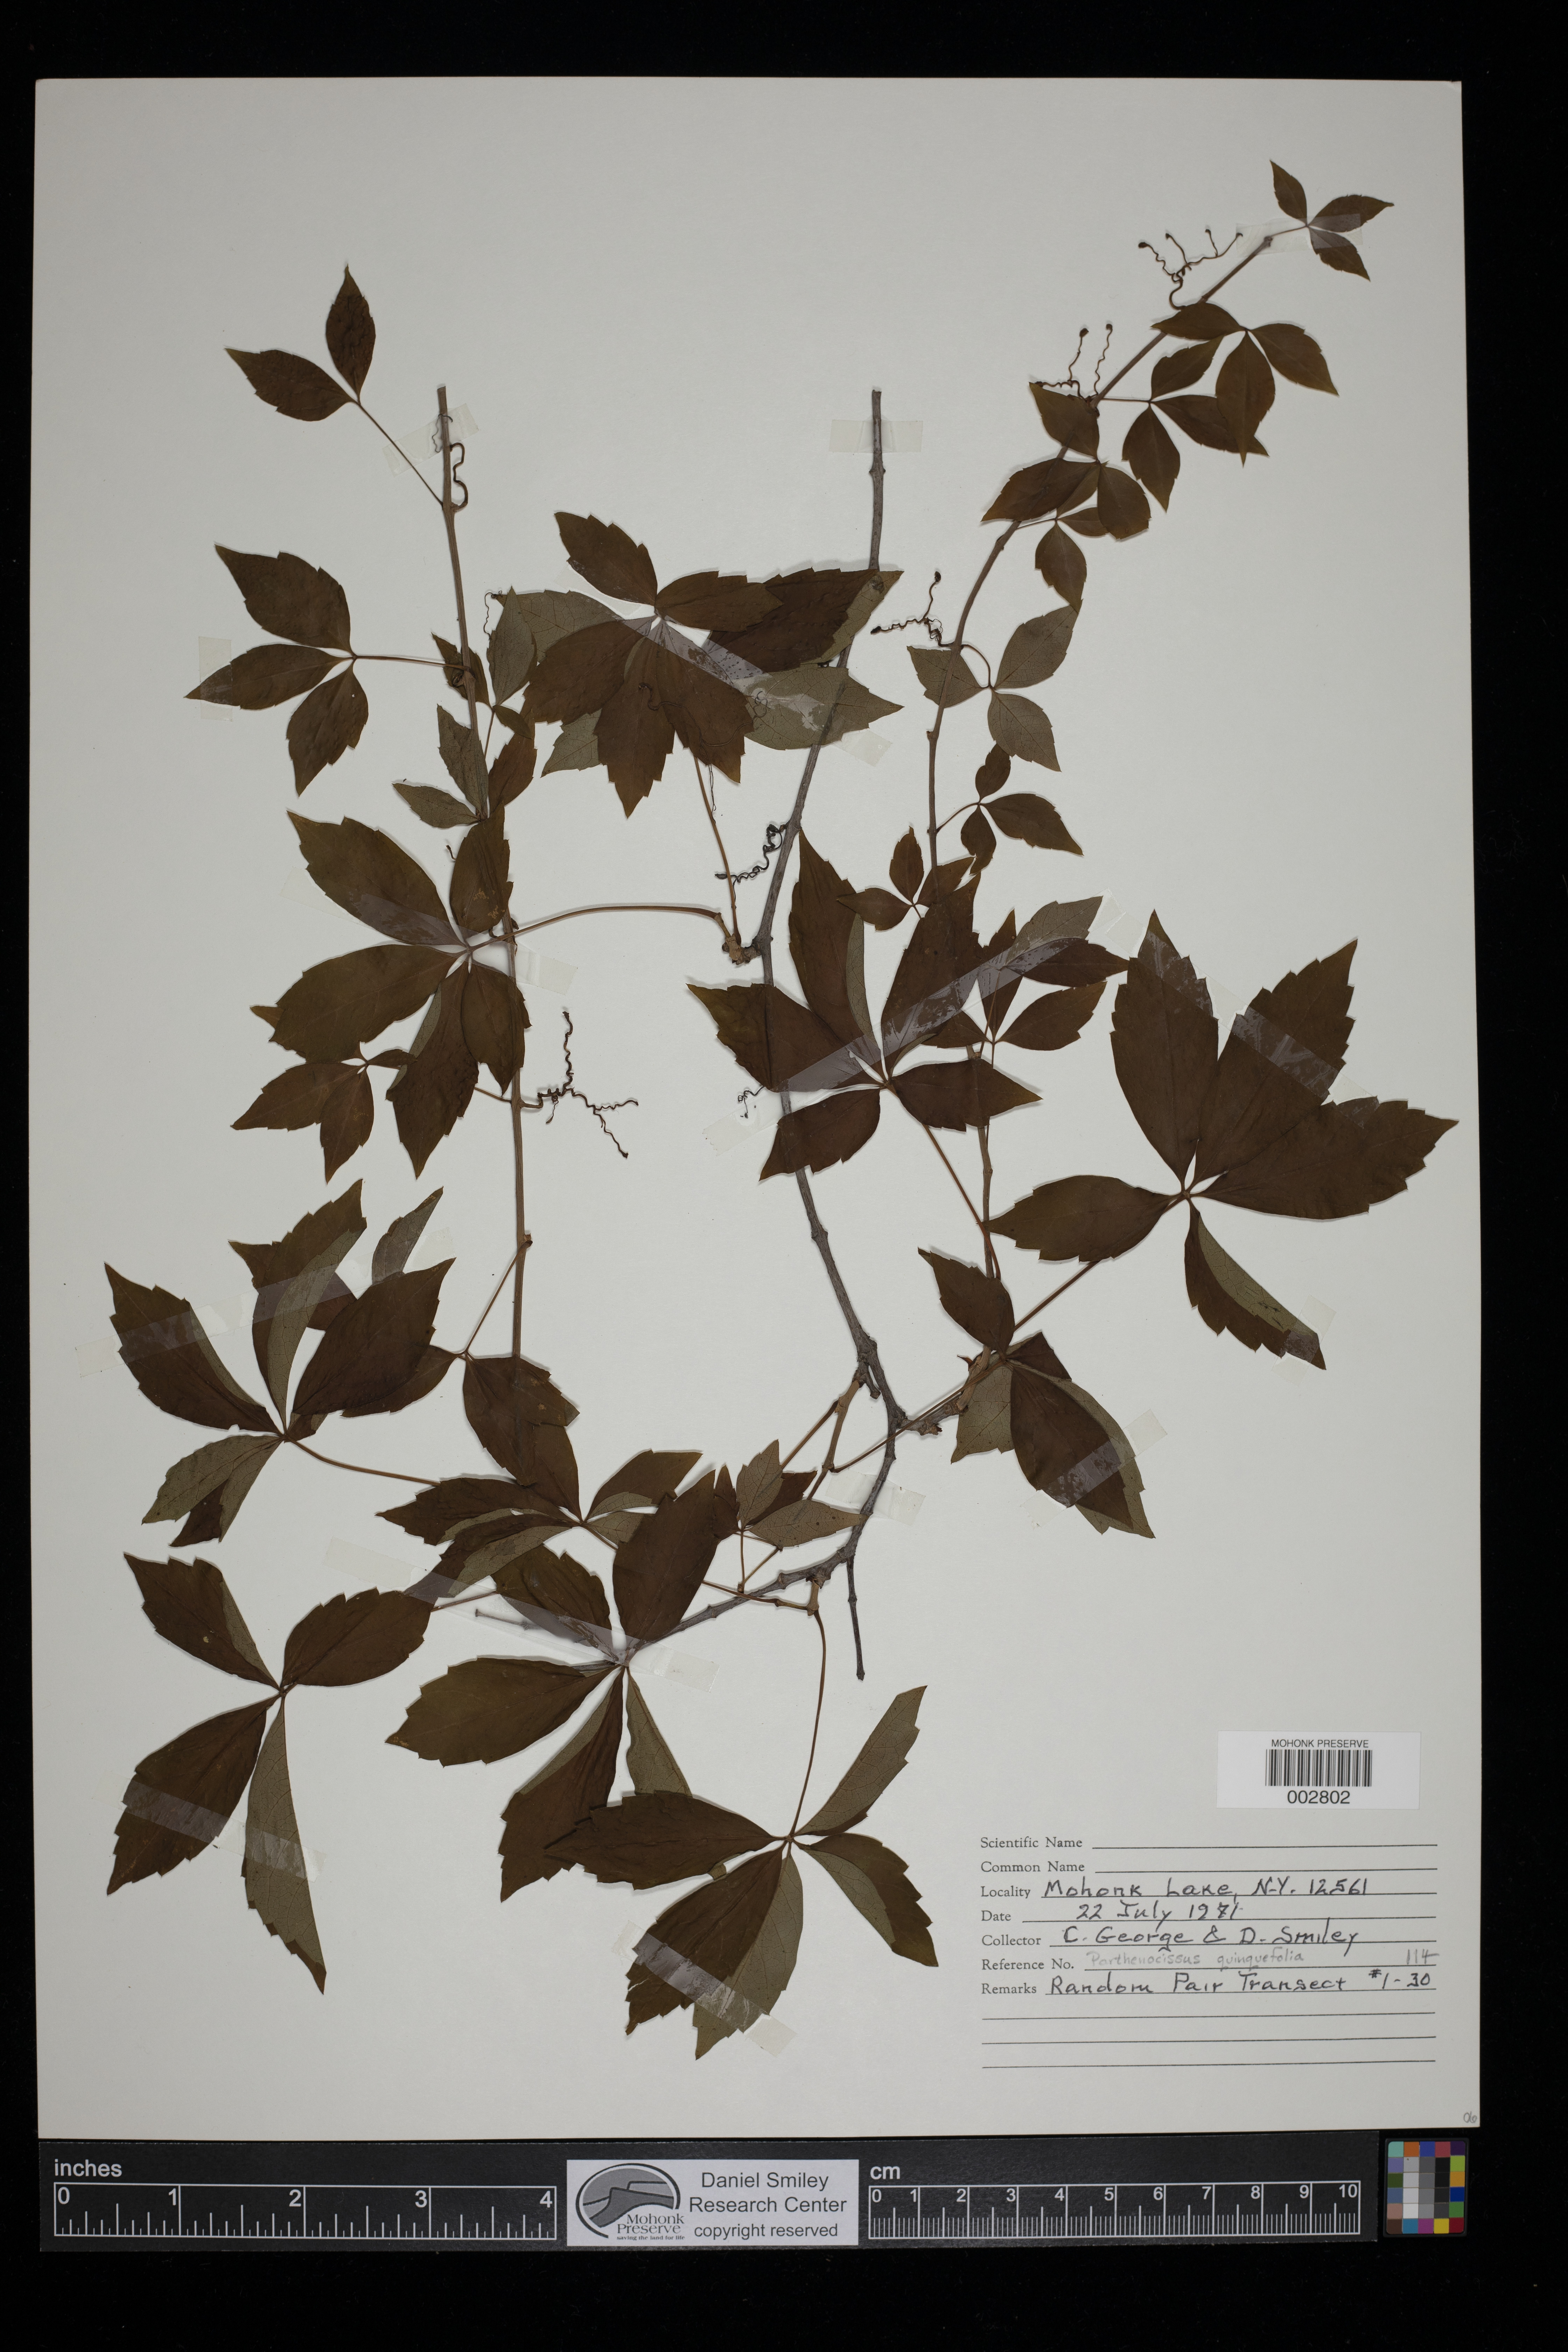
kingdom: Plantae
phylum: Tracheophyta
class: Magnoliopsida
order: Vitales
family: Vitaceae
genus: Parthenocissus
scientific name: Parthenocissus quinquefolia
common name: Virginia-creeper
